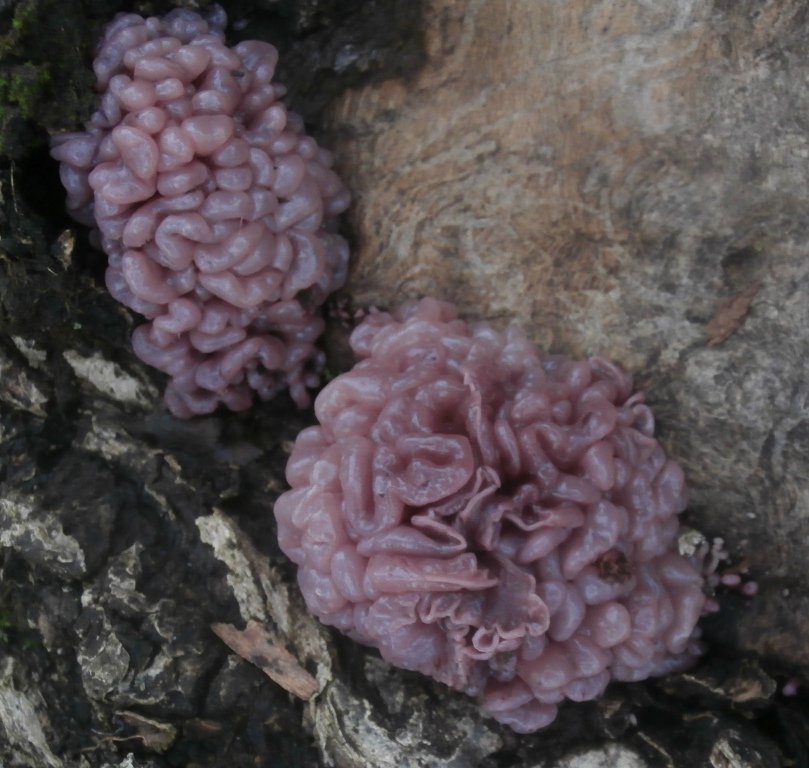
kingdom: Fungi
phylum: Ascomycota
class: Leotiomycetes
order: Helotiales
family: Gelatinodiscaceae
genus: Ascocoryne
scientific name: Ascocoryne sarcoides
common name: rødlilla sejskive
